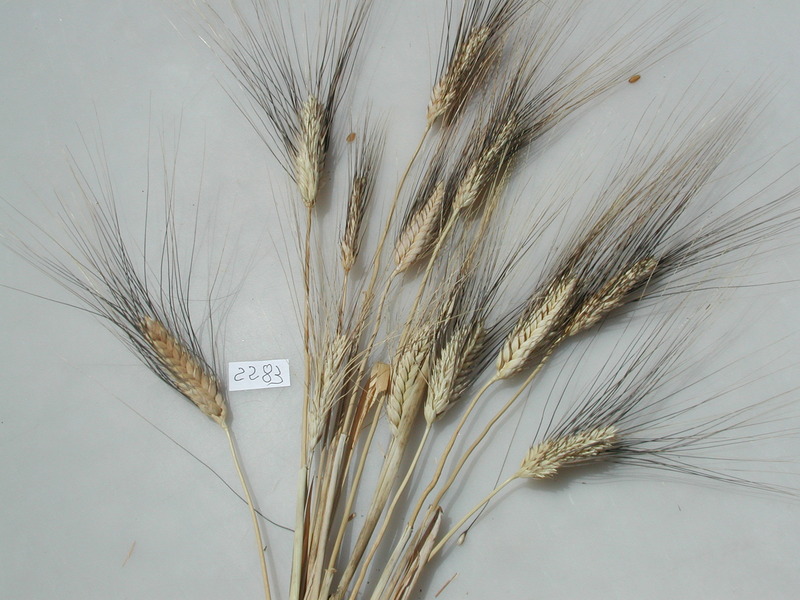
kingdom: Plantae
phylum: Tracheophyta
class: Liliopsida
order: Poales
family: Poaceae
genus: Triticum
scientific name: Triticum turgidum
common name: Wheat
